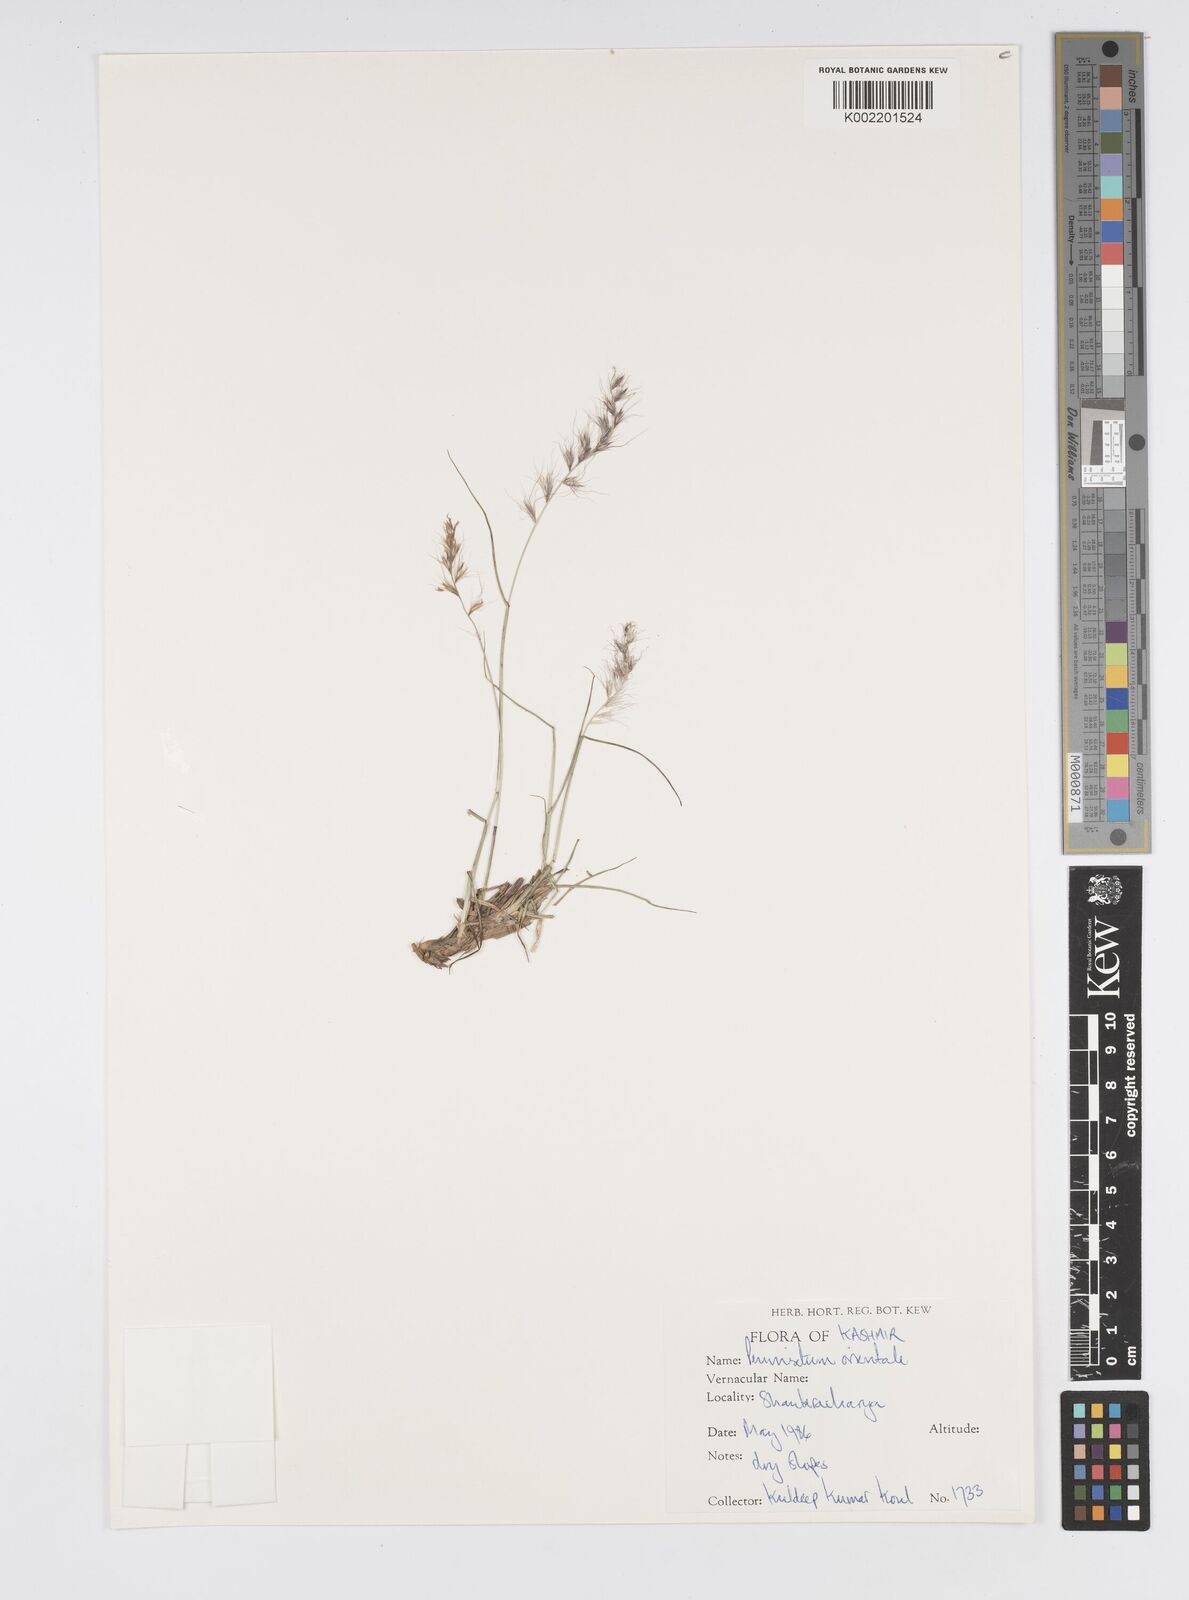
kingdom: Plantae
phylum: Tracheophyta
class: Liliopsida
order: Poales
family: Poaceae
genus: Cenchrus
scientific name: Cenchrus orientalis
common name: Oriental fountain grass
